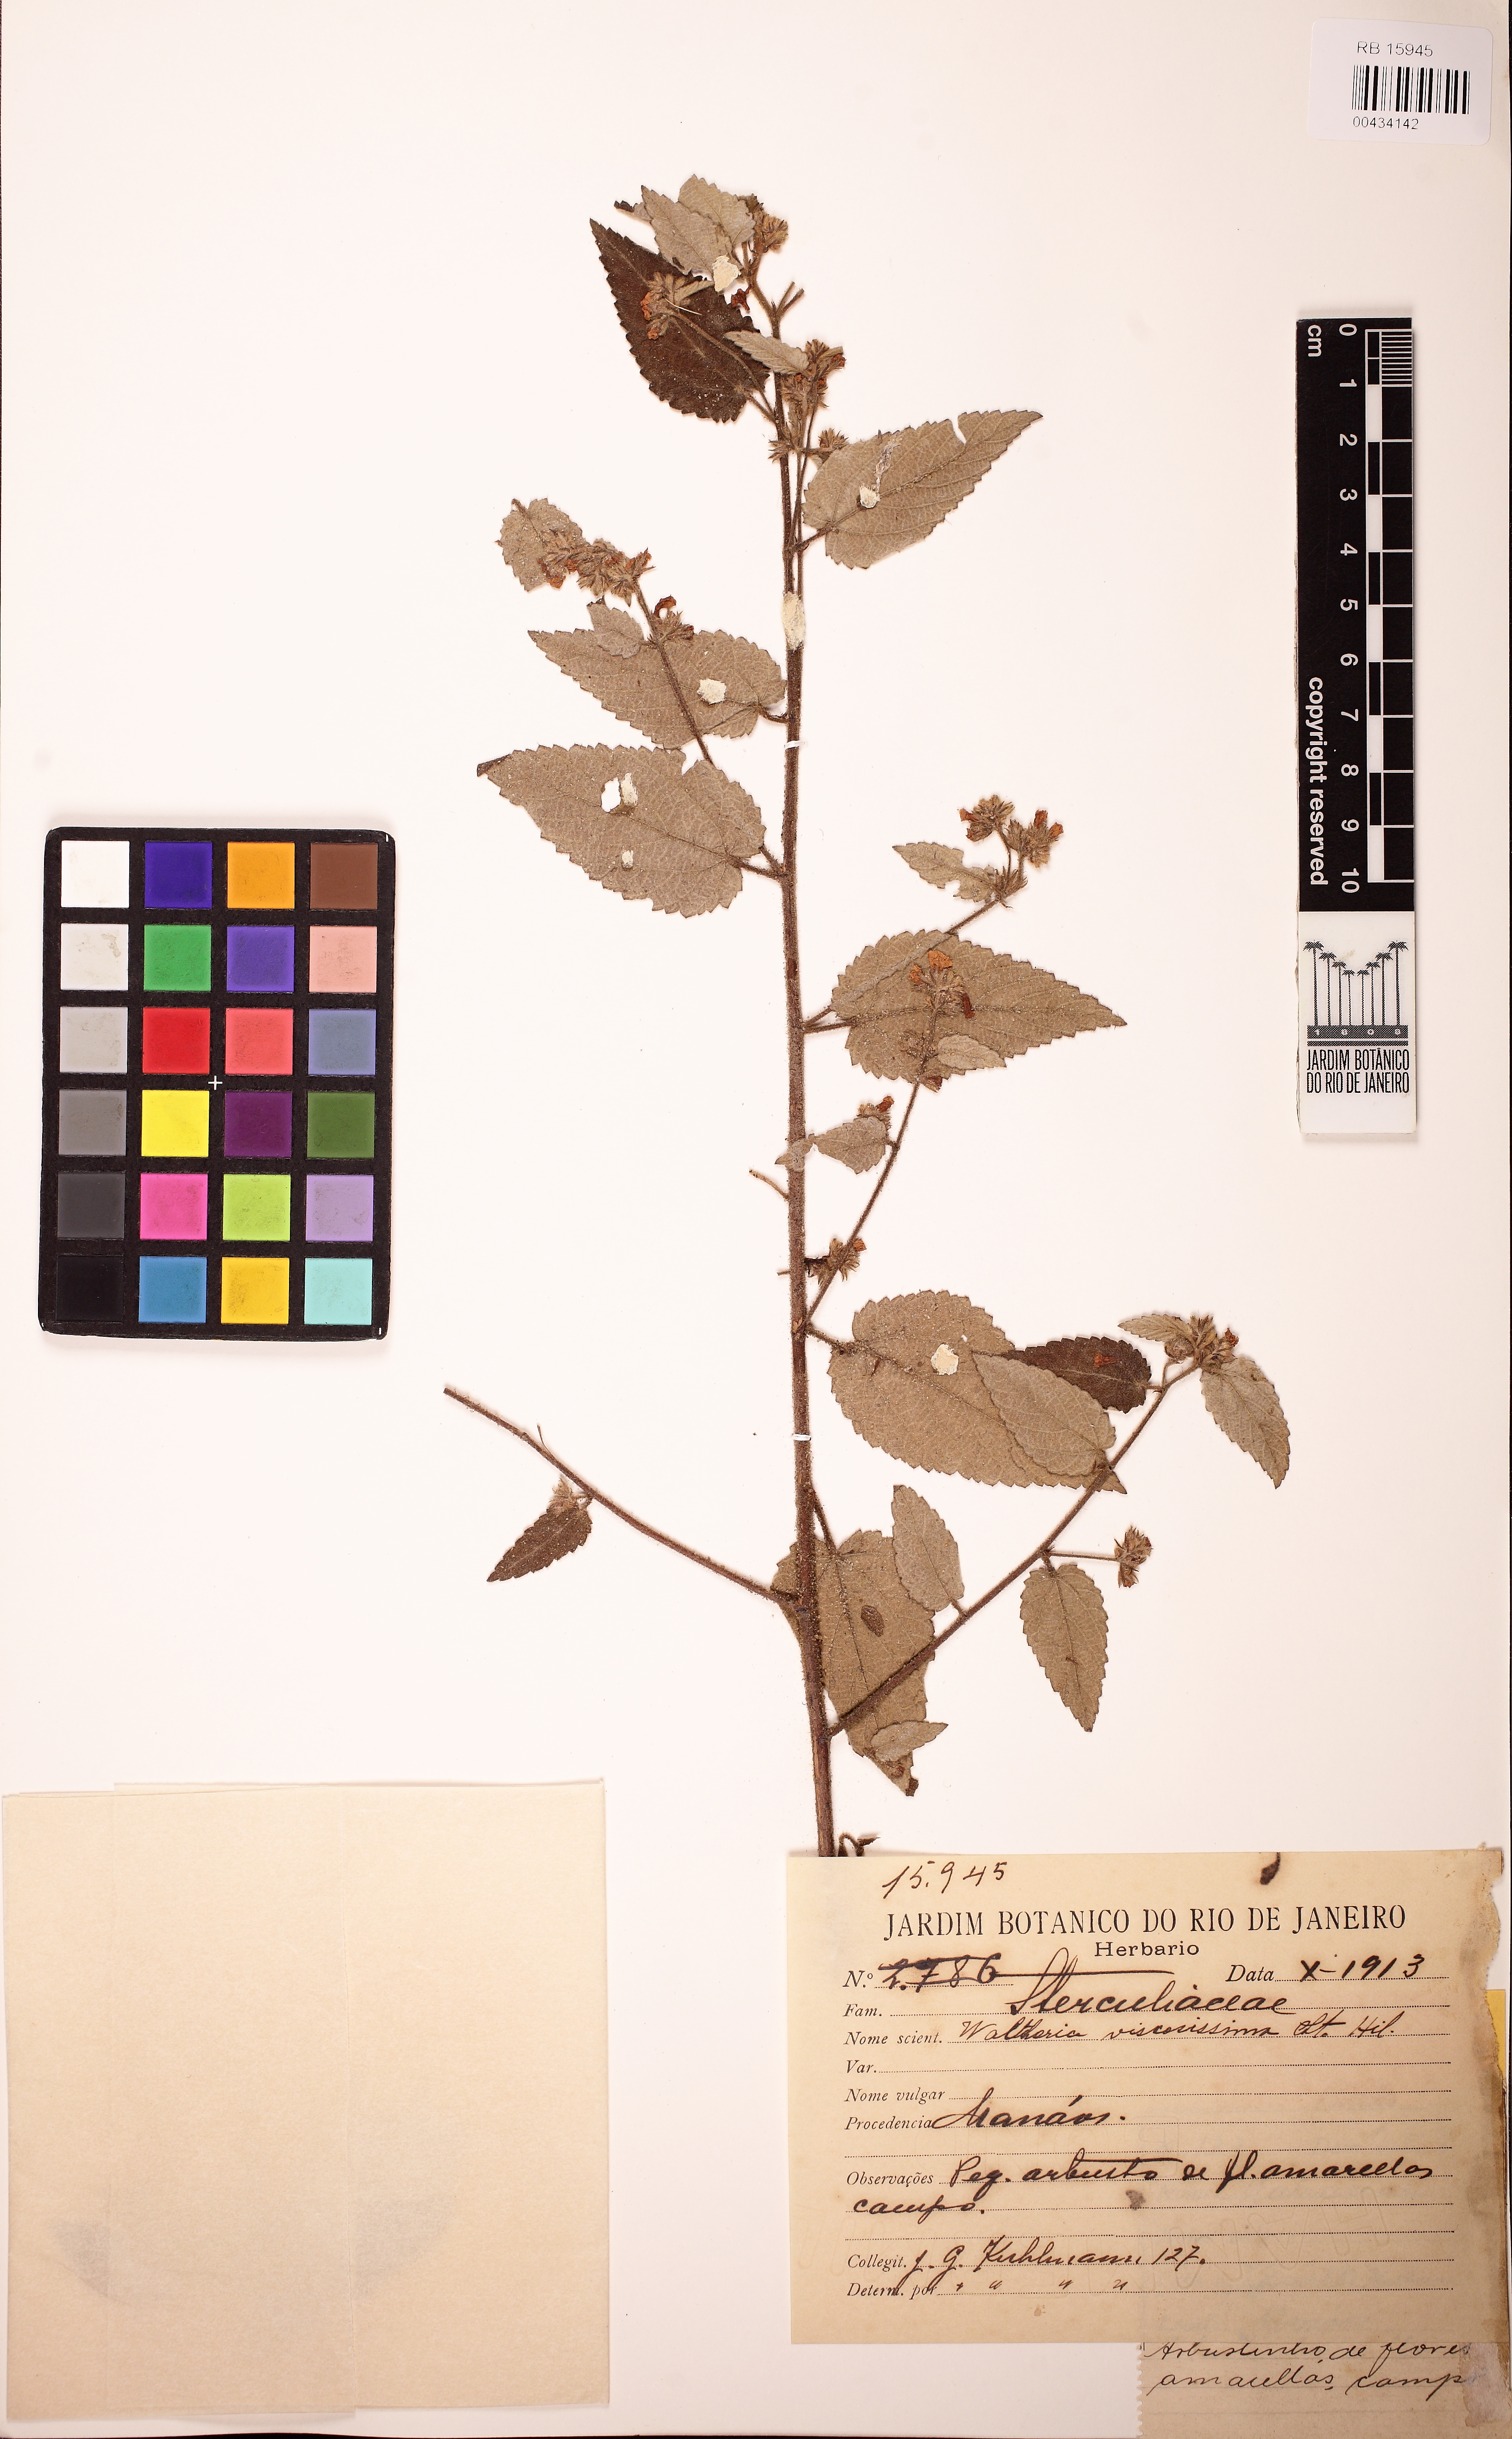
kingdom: Plantae
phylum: Tracheophyta
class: Magnoliopsida
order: Malvales
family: Malvaceae
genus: Waltheria
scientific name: Waltheria viscosissima
